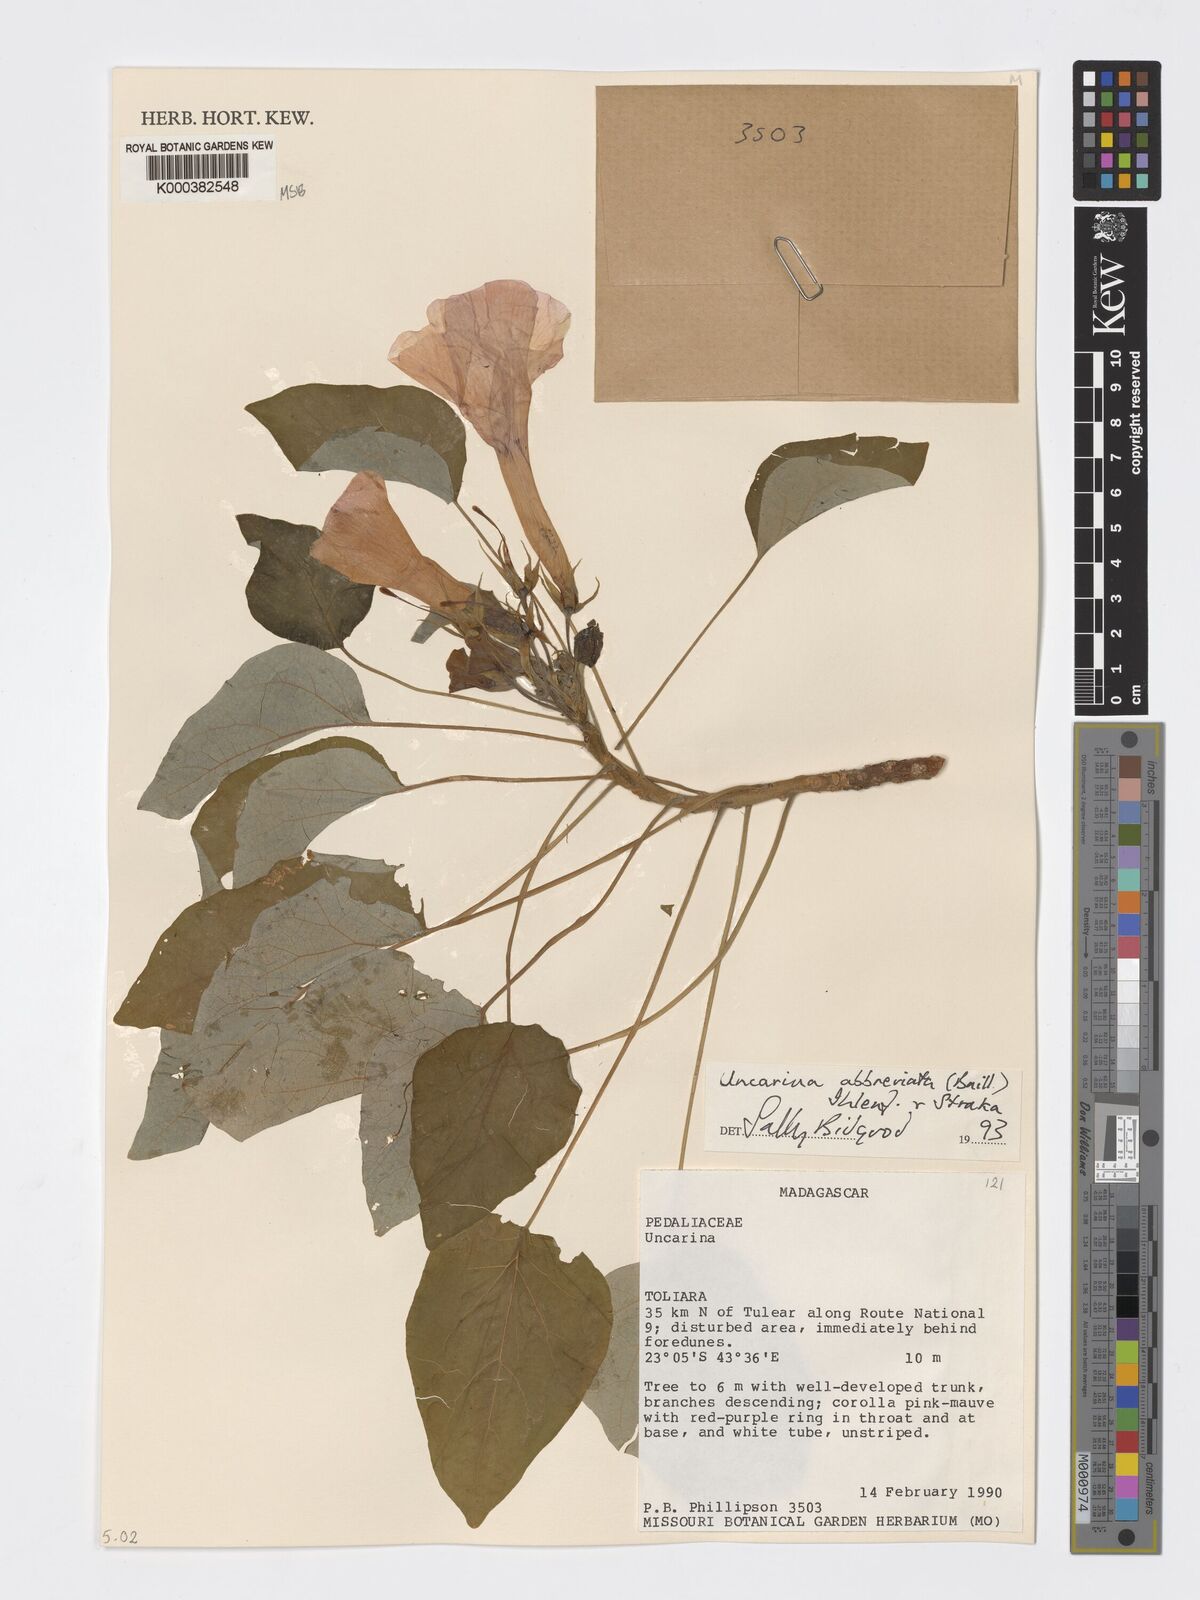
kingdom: Plantae
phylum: Tracheophyta
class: Magnoliopsida
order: Lamiales
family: Pedaliaceae
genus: Uncarina
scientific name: Uncarina abbreviata
